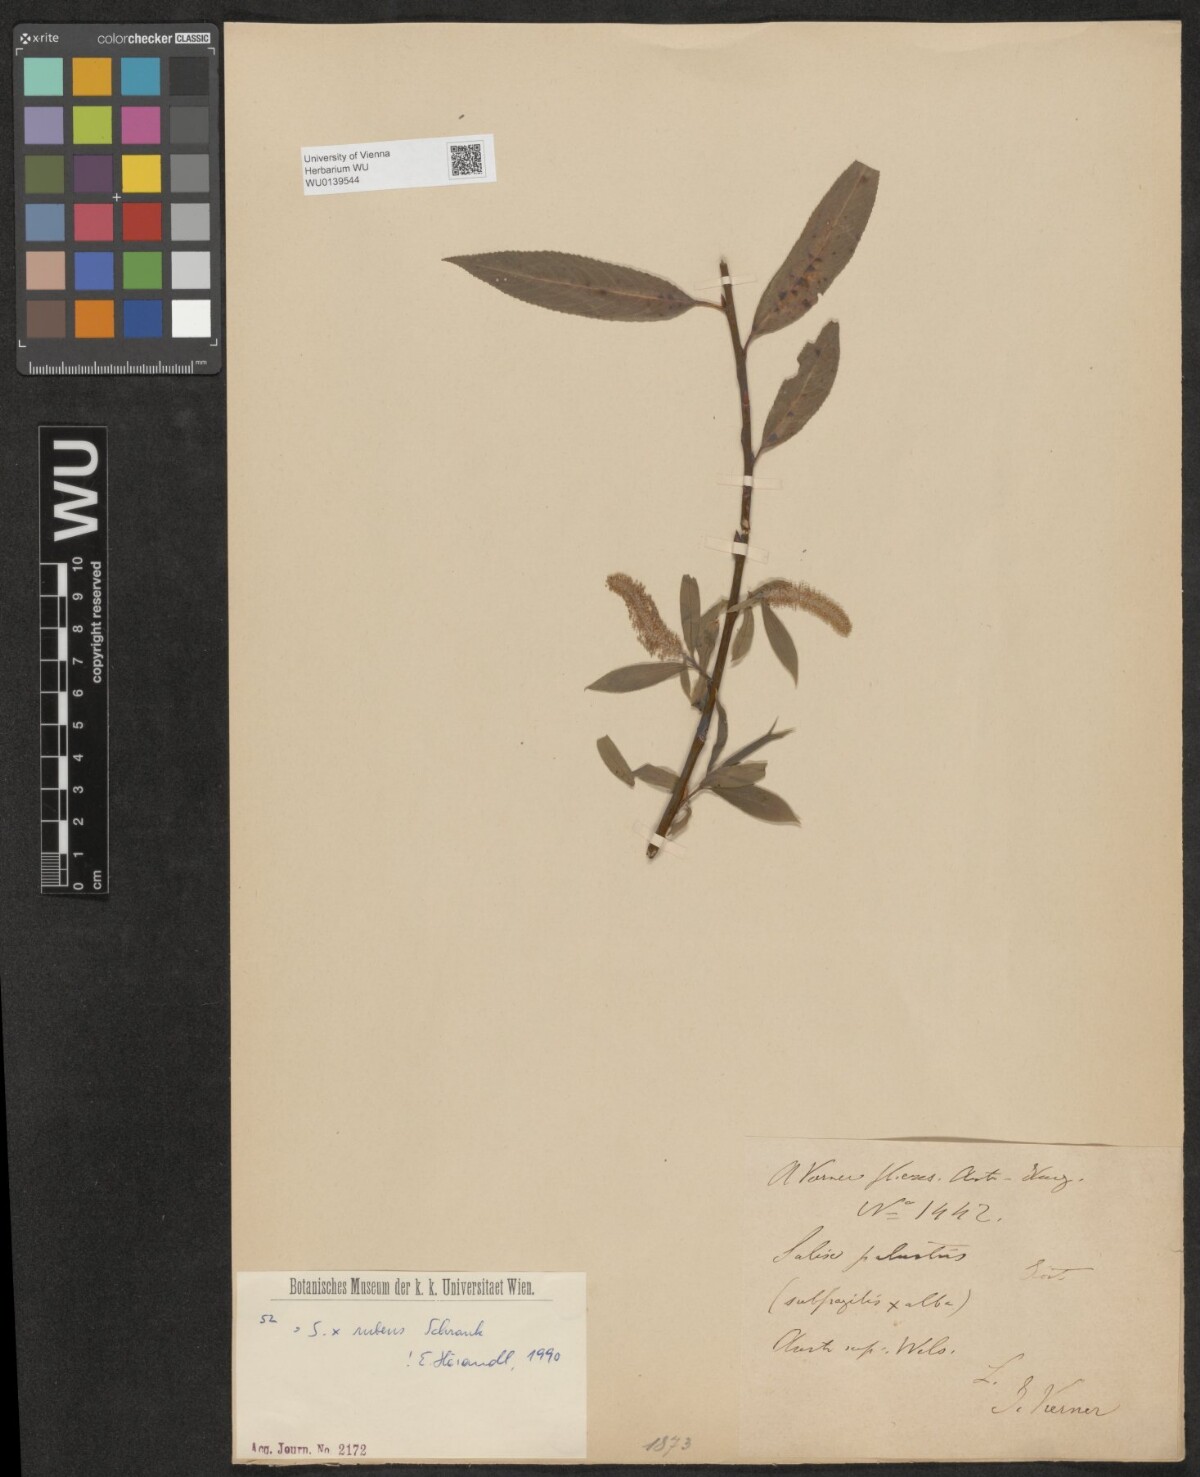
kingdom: Plantae
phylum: Tracheophyta
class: Magnoliopsida
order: Malpighiales
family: Salicaceae
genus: Salix
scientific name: Salix rubens
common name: Hybrid crack willow
